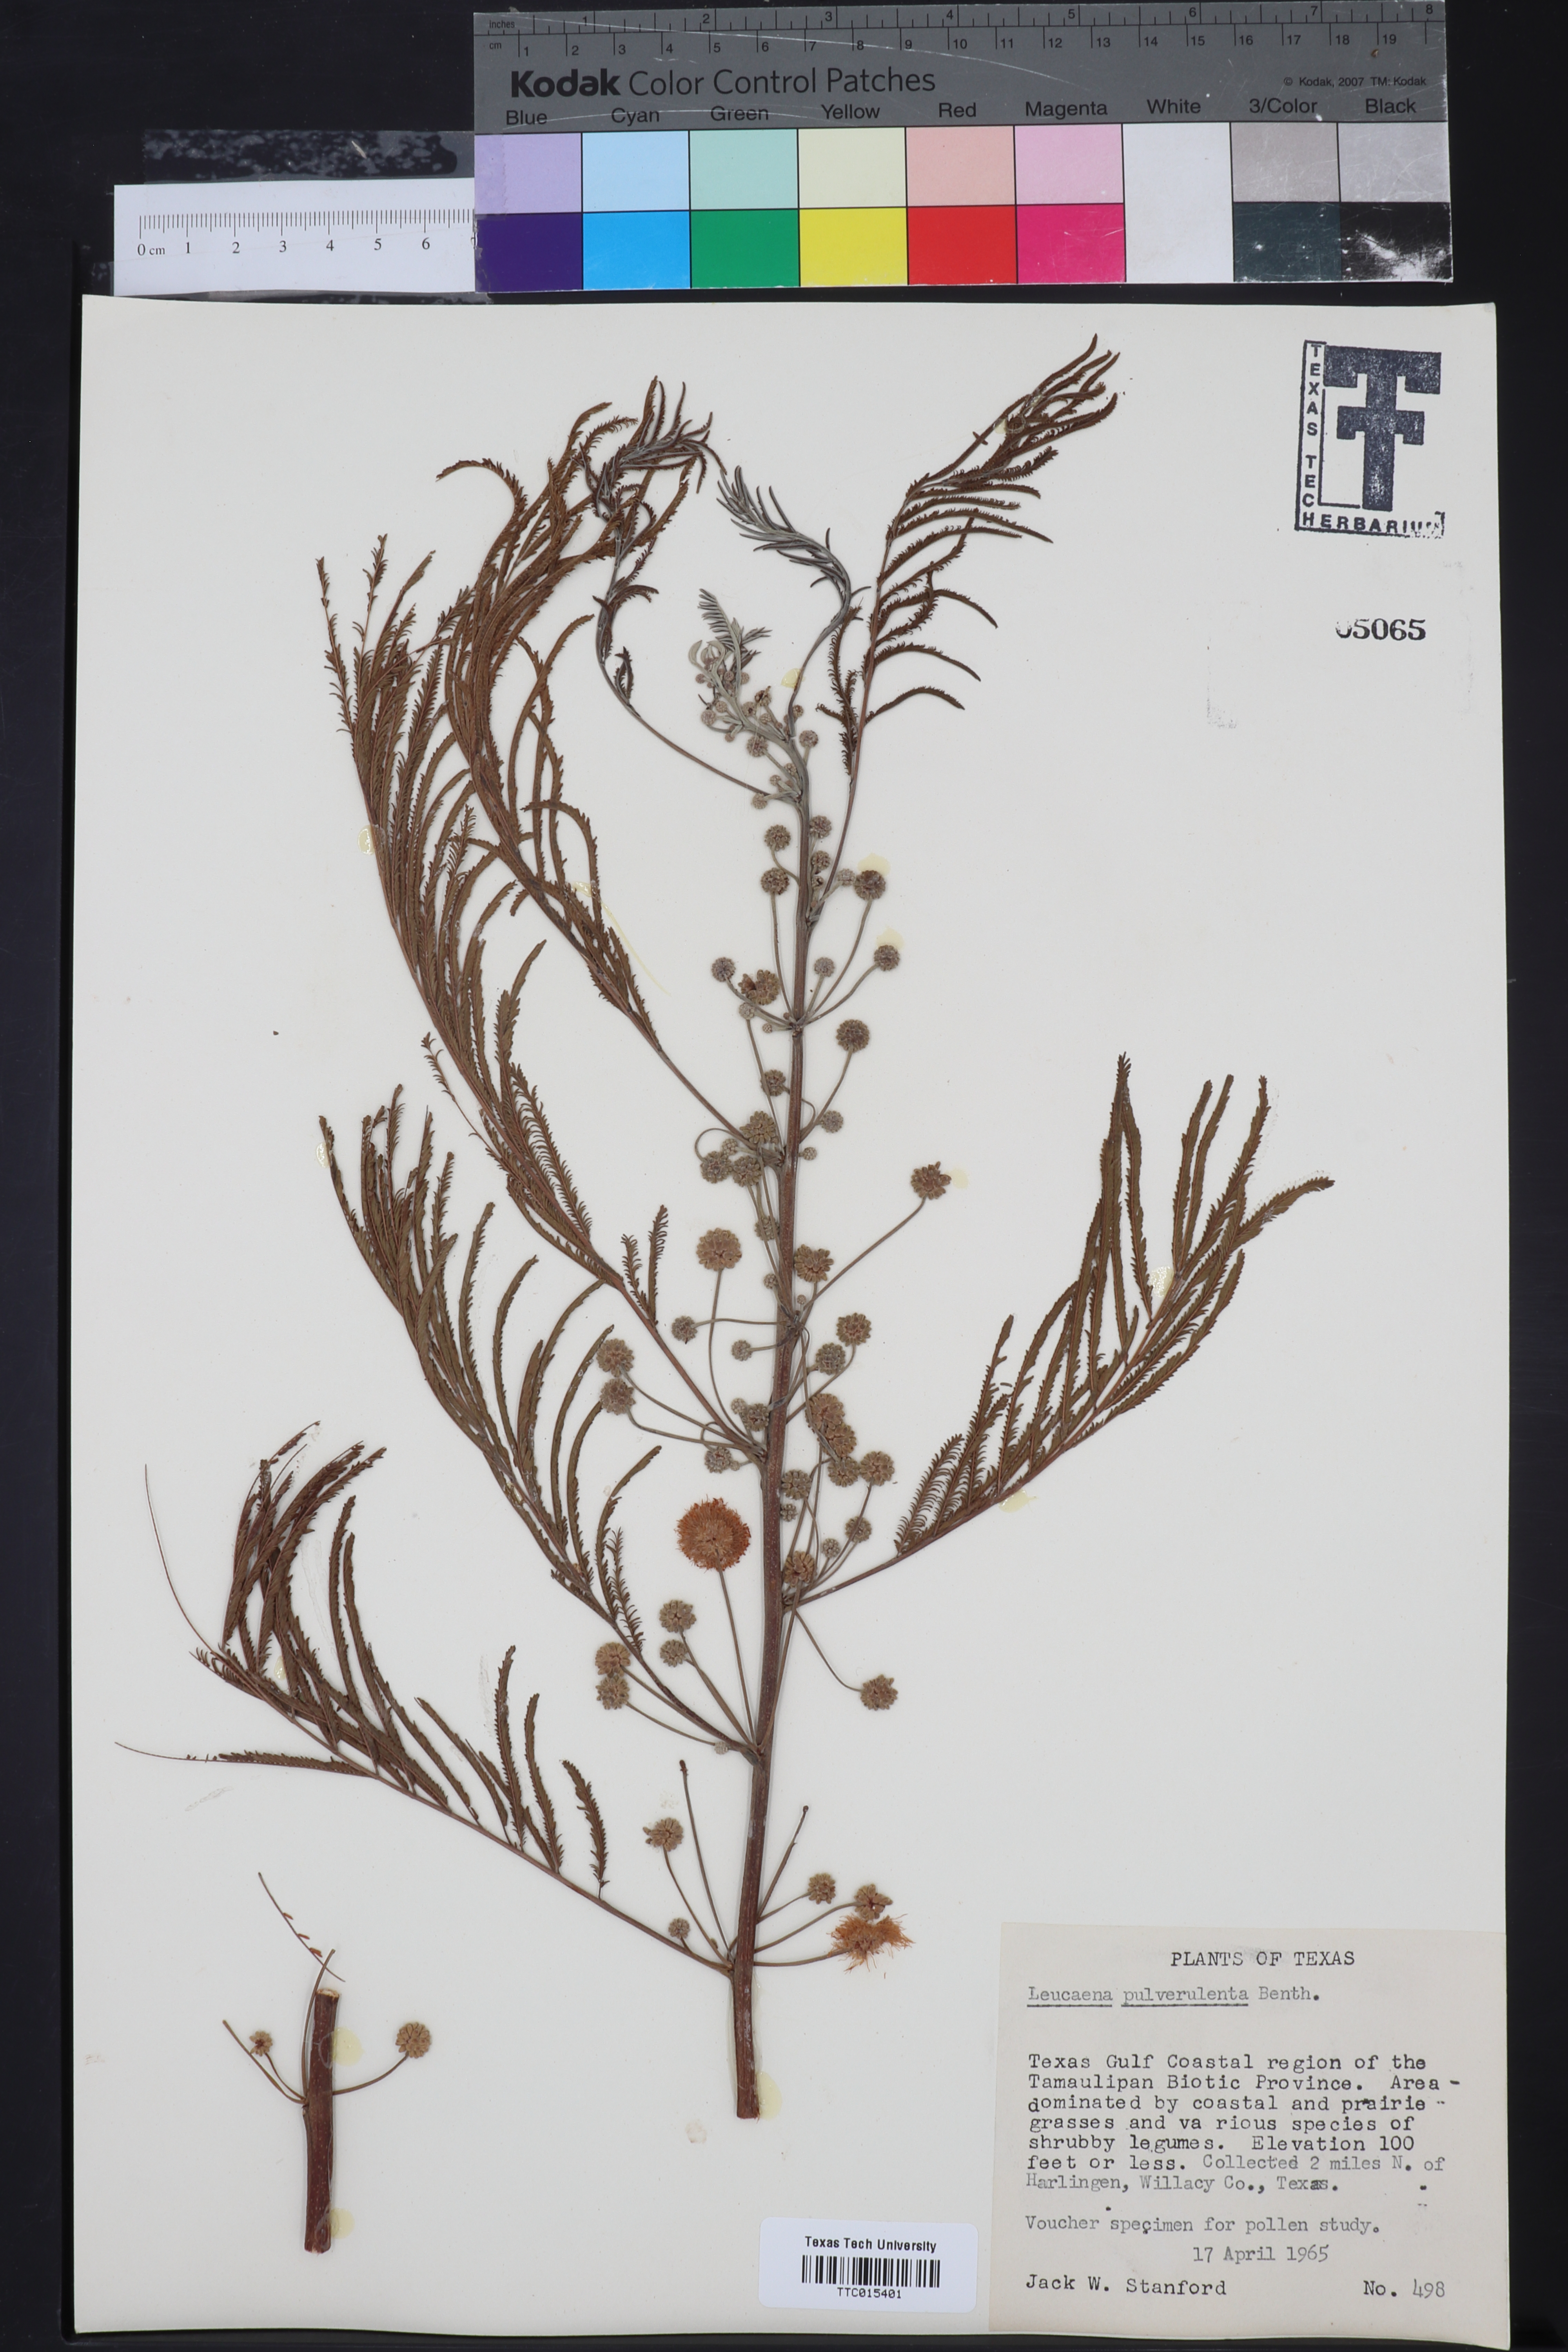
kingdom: Plantae
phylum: Tracheophyta
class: Magnoliopsida
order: Fabales
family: Fabaceae
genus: Leucaena
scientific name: Leucaena pulverulenta
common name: Great leadtree
